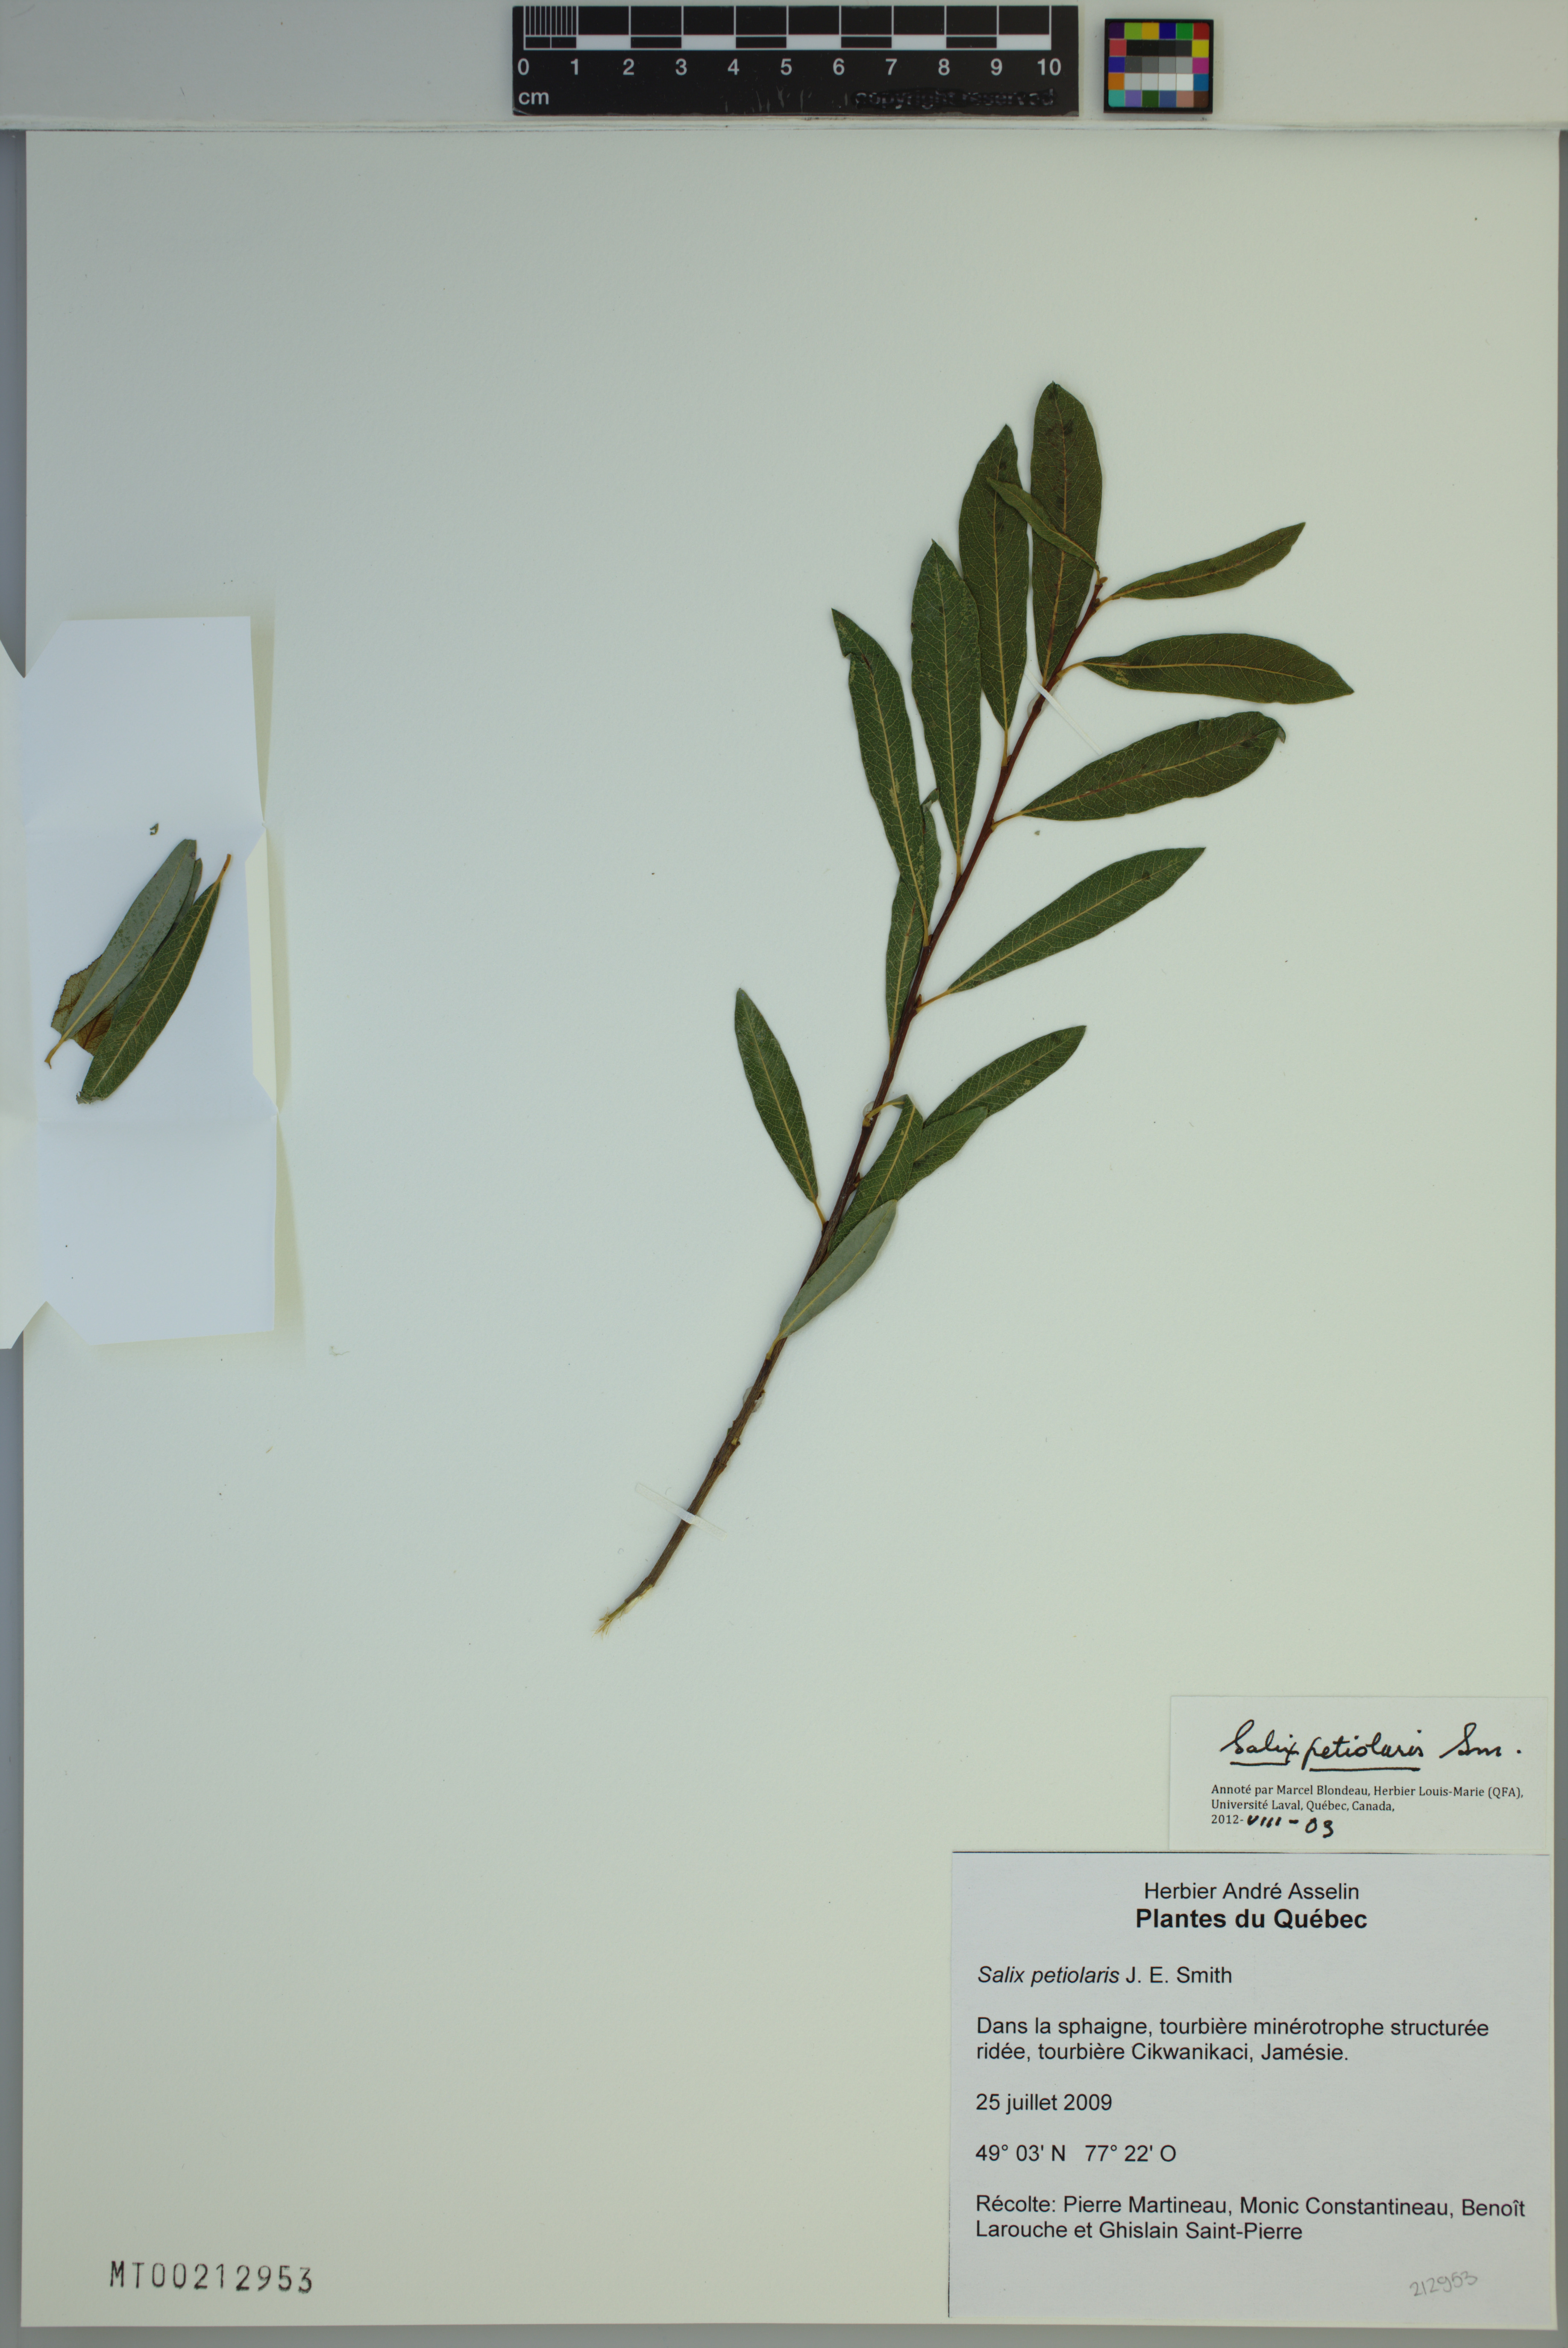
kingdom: Plantae
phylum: Tracheophyta
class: Magnoliopsida
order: Malpighiales
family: Salicaceae
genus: Salix
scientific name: Salix petiolaris
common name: Slender willow
